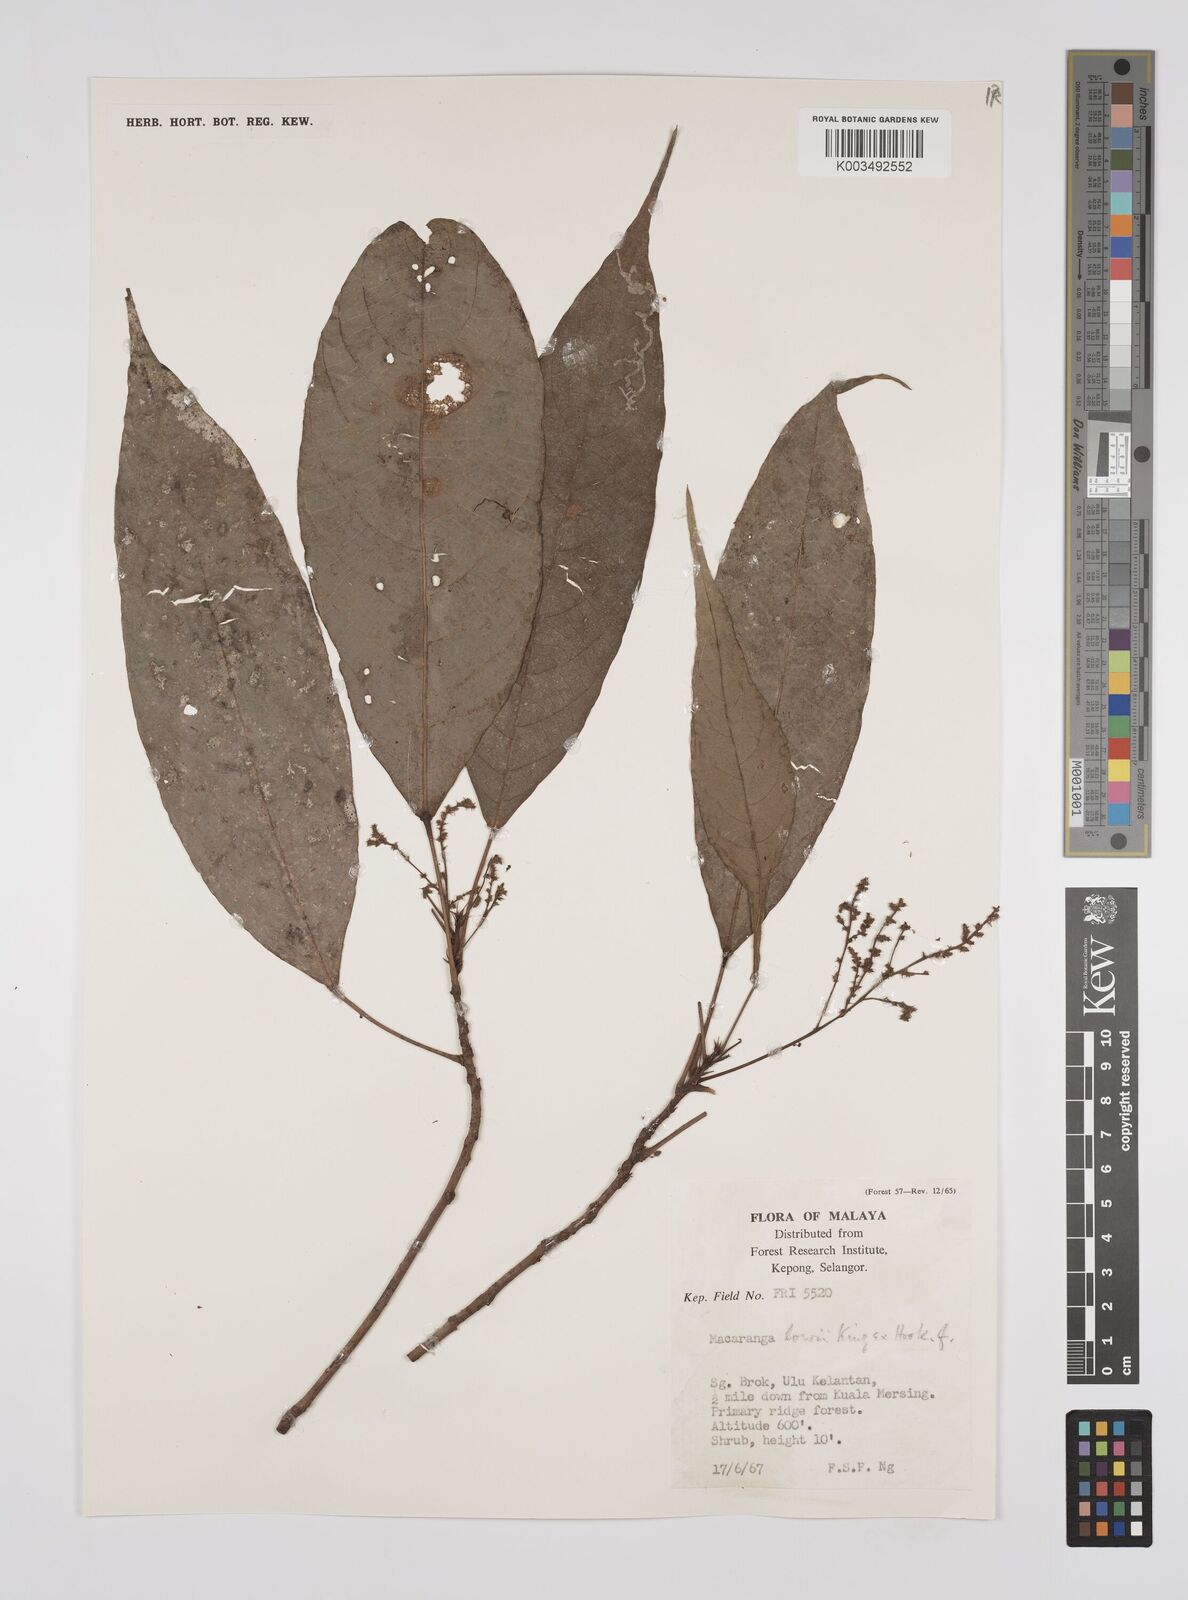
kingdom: Plantae
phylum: Tracheophyta
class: Magnoliopsida
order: Malpighiales
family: Euphorbiaceae
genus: Macaranga
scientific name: Macaranga lowii
